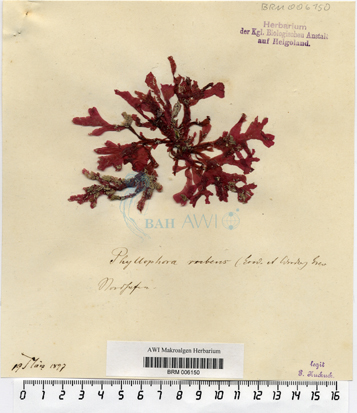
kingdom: Plantae
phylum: Rhodophyta
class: Florideophyceae
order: Gigartinales
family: Phyllophoraceae
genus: Phyllophora
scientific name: Phyllophora crispa
